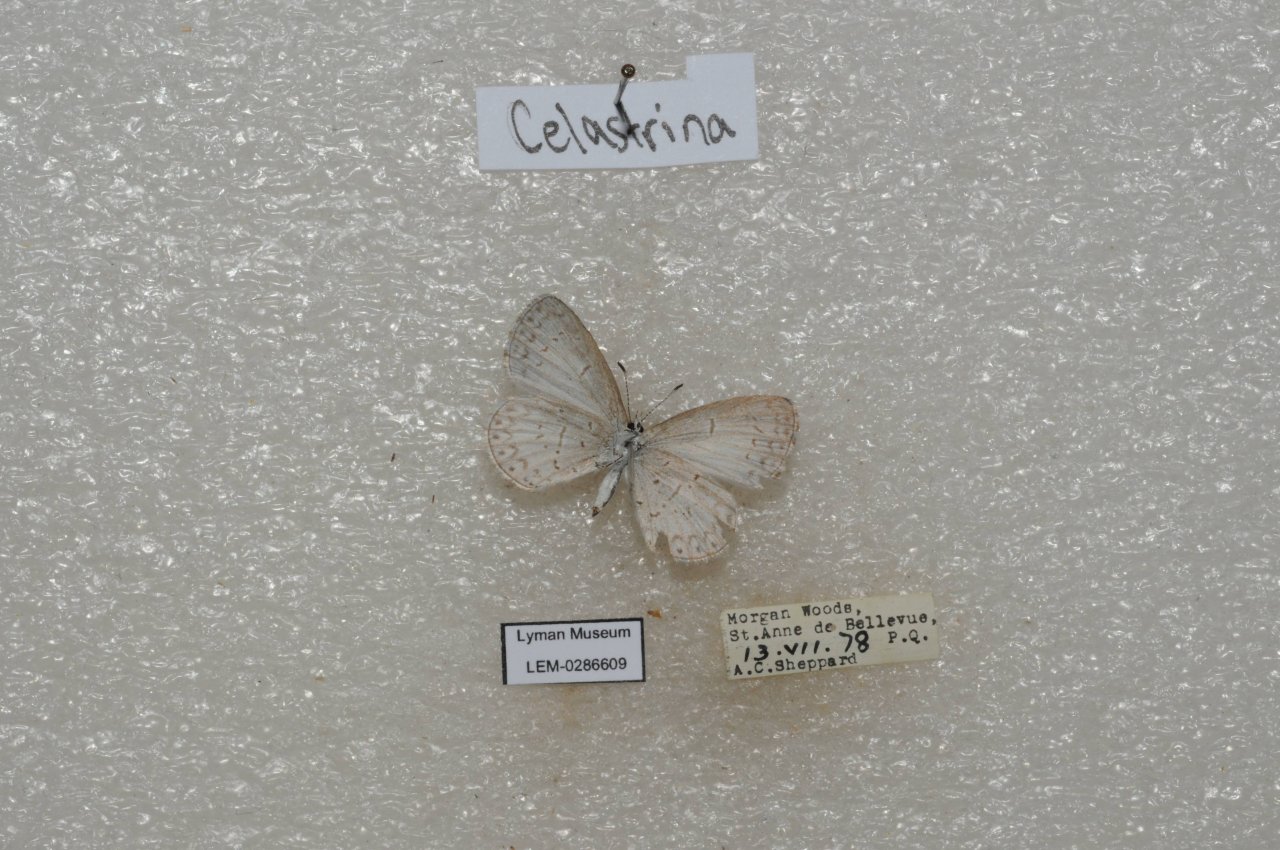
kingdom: Animalia
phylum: Arthropoda
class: Insecta
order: Lepidoptera
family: Lycaenidae
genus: Celastrina
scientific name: Celastrina lucia
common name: Northern Spring Azure
